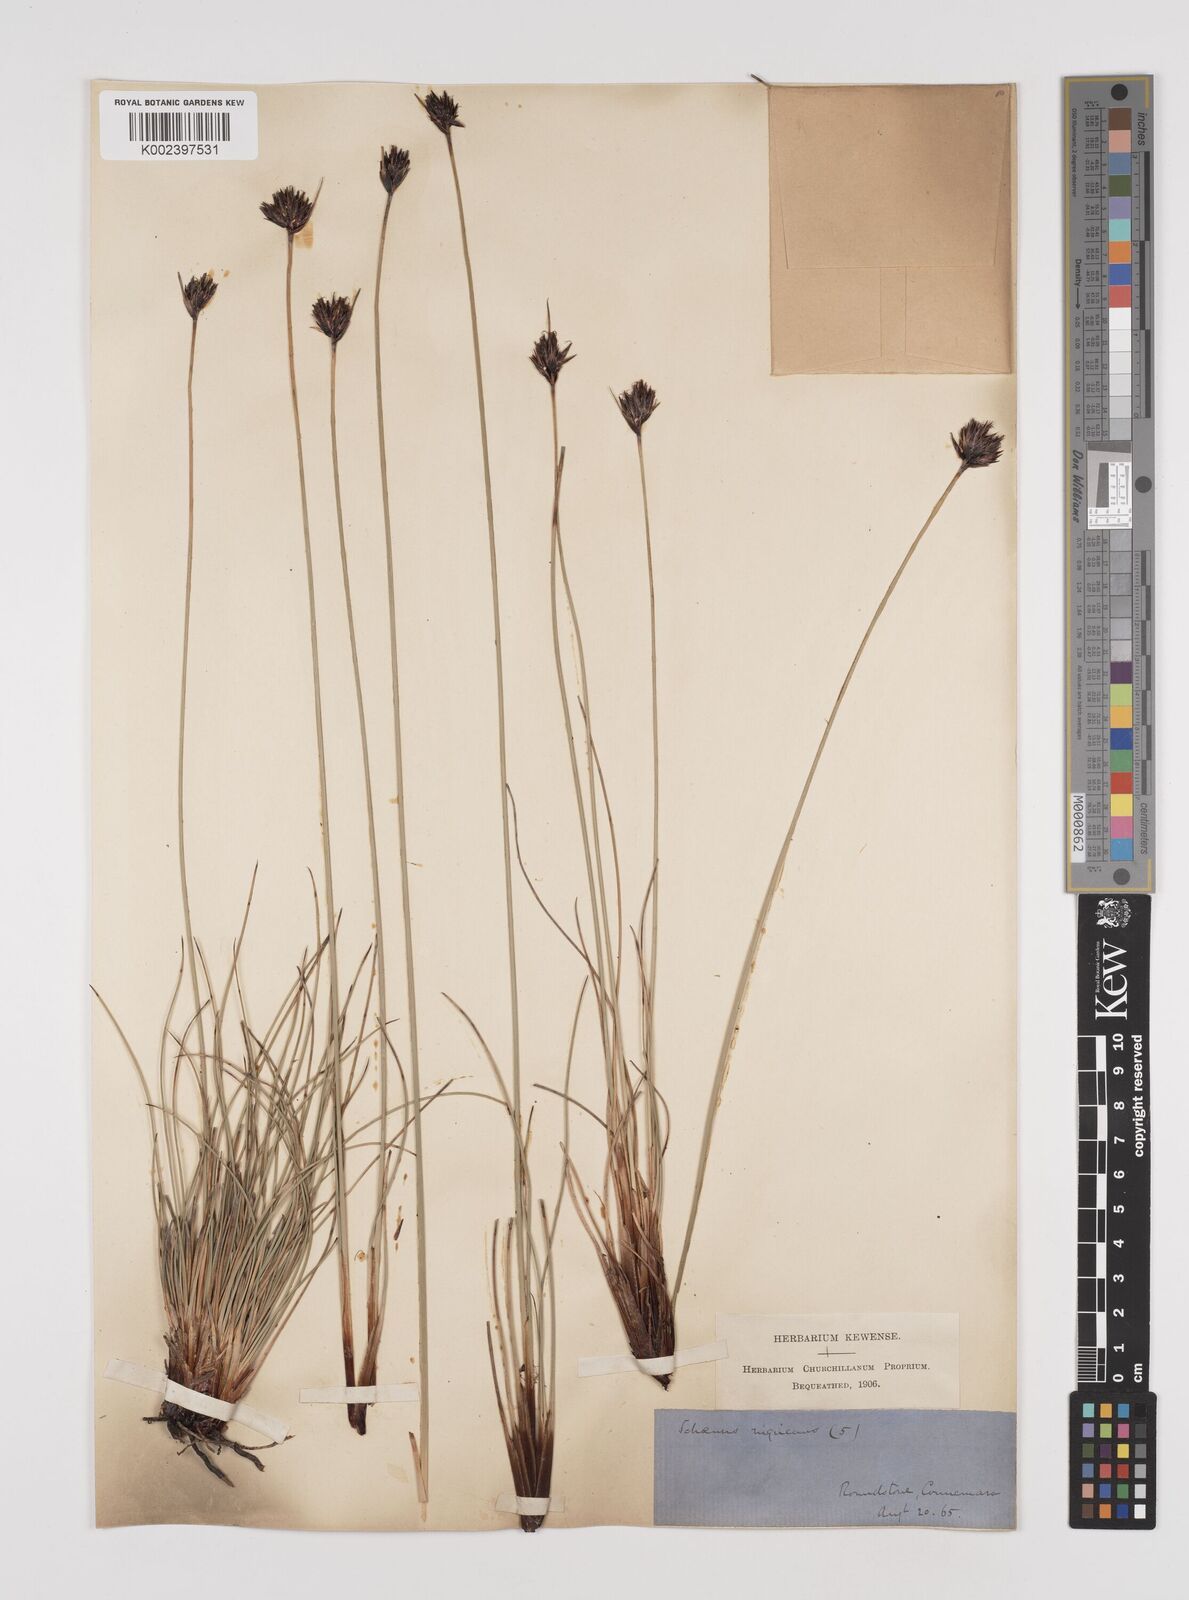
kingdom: Plantae
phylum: Tracheophyta
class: Liliopsida
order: Poales
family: Cyperaceae
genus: Schoenus
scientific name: Schoenus nigricans
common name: Black bog-rush
